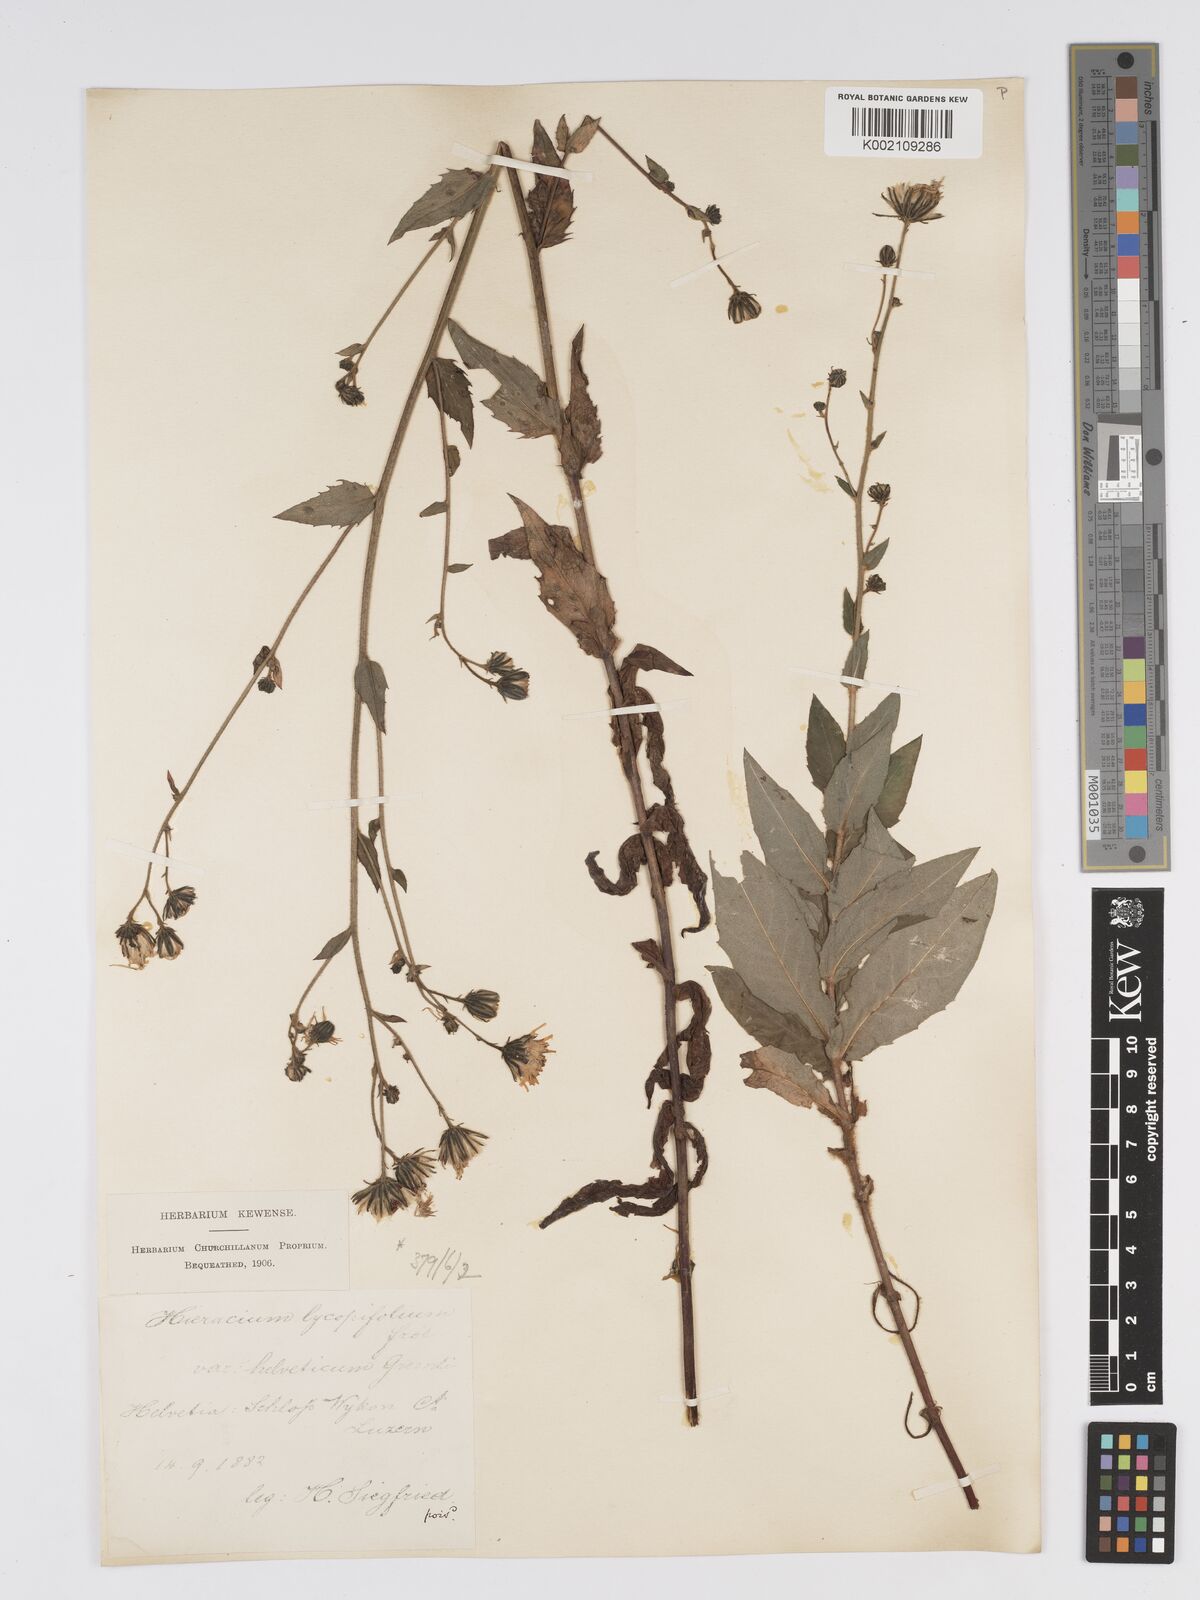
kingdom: Plantae
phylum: Tracheophyta
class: Magnoliopsida
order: Asterales
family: Asteraceae
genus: Hieracium
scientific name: Hieracium lycopifolium
